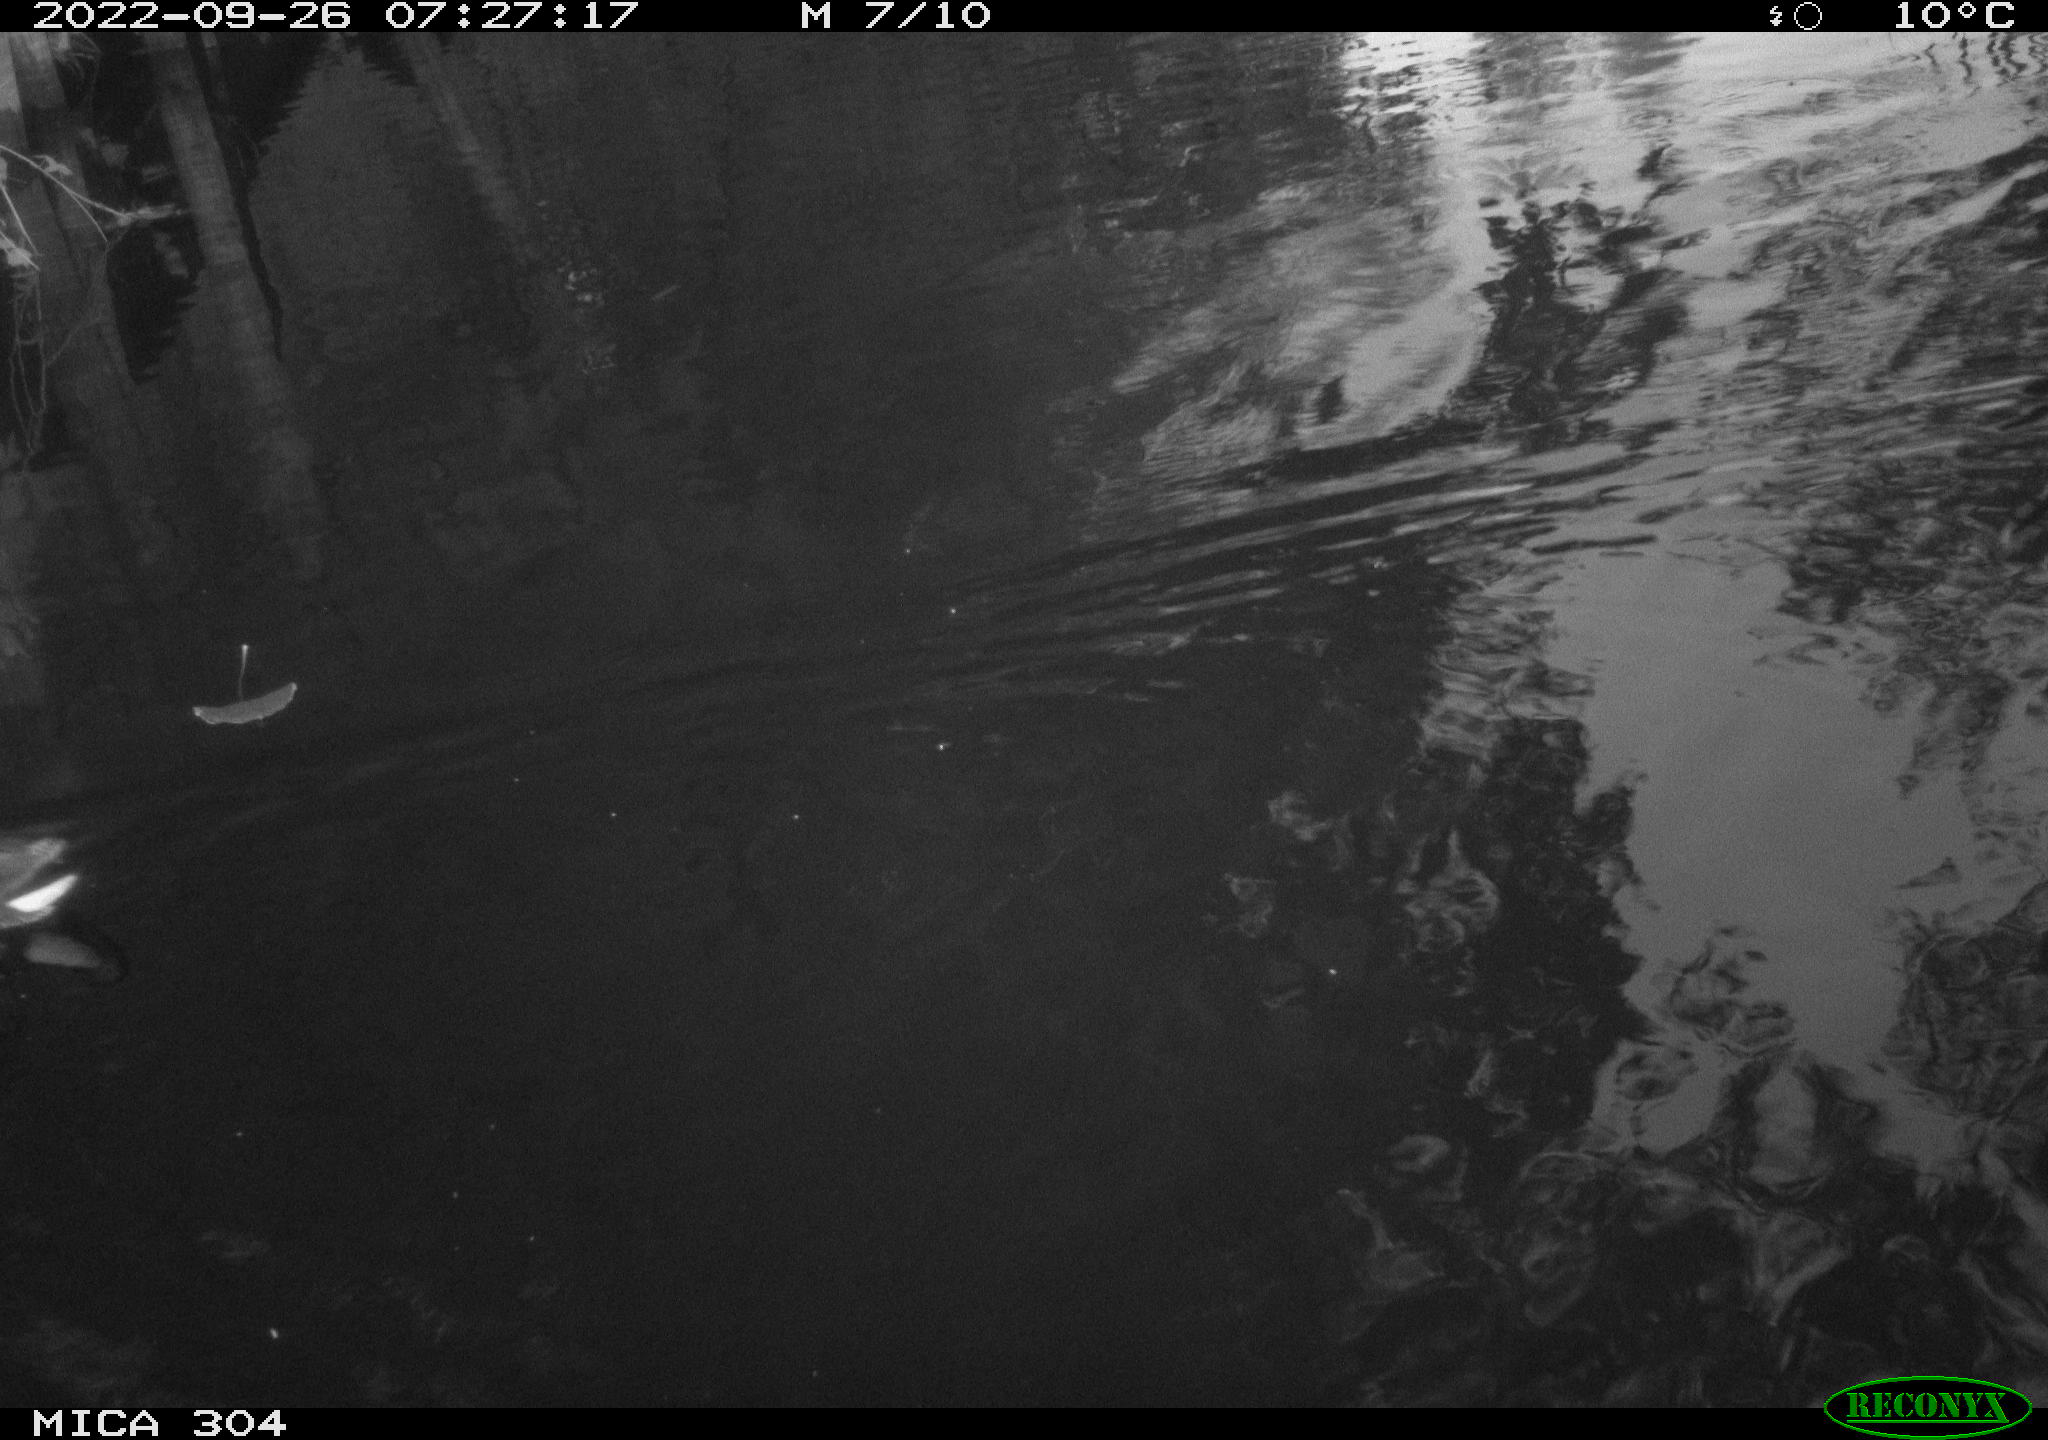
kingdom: Animalia
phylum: Chordata
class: Aves
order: Gruiformes
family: Rallidae
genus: Gallinula
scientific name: Gallinula chloropus
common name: Common moorhen
